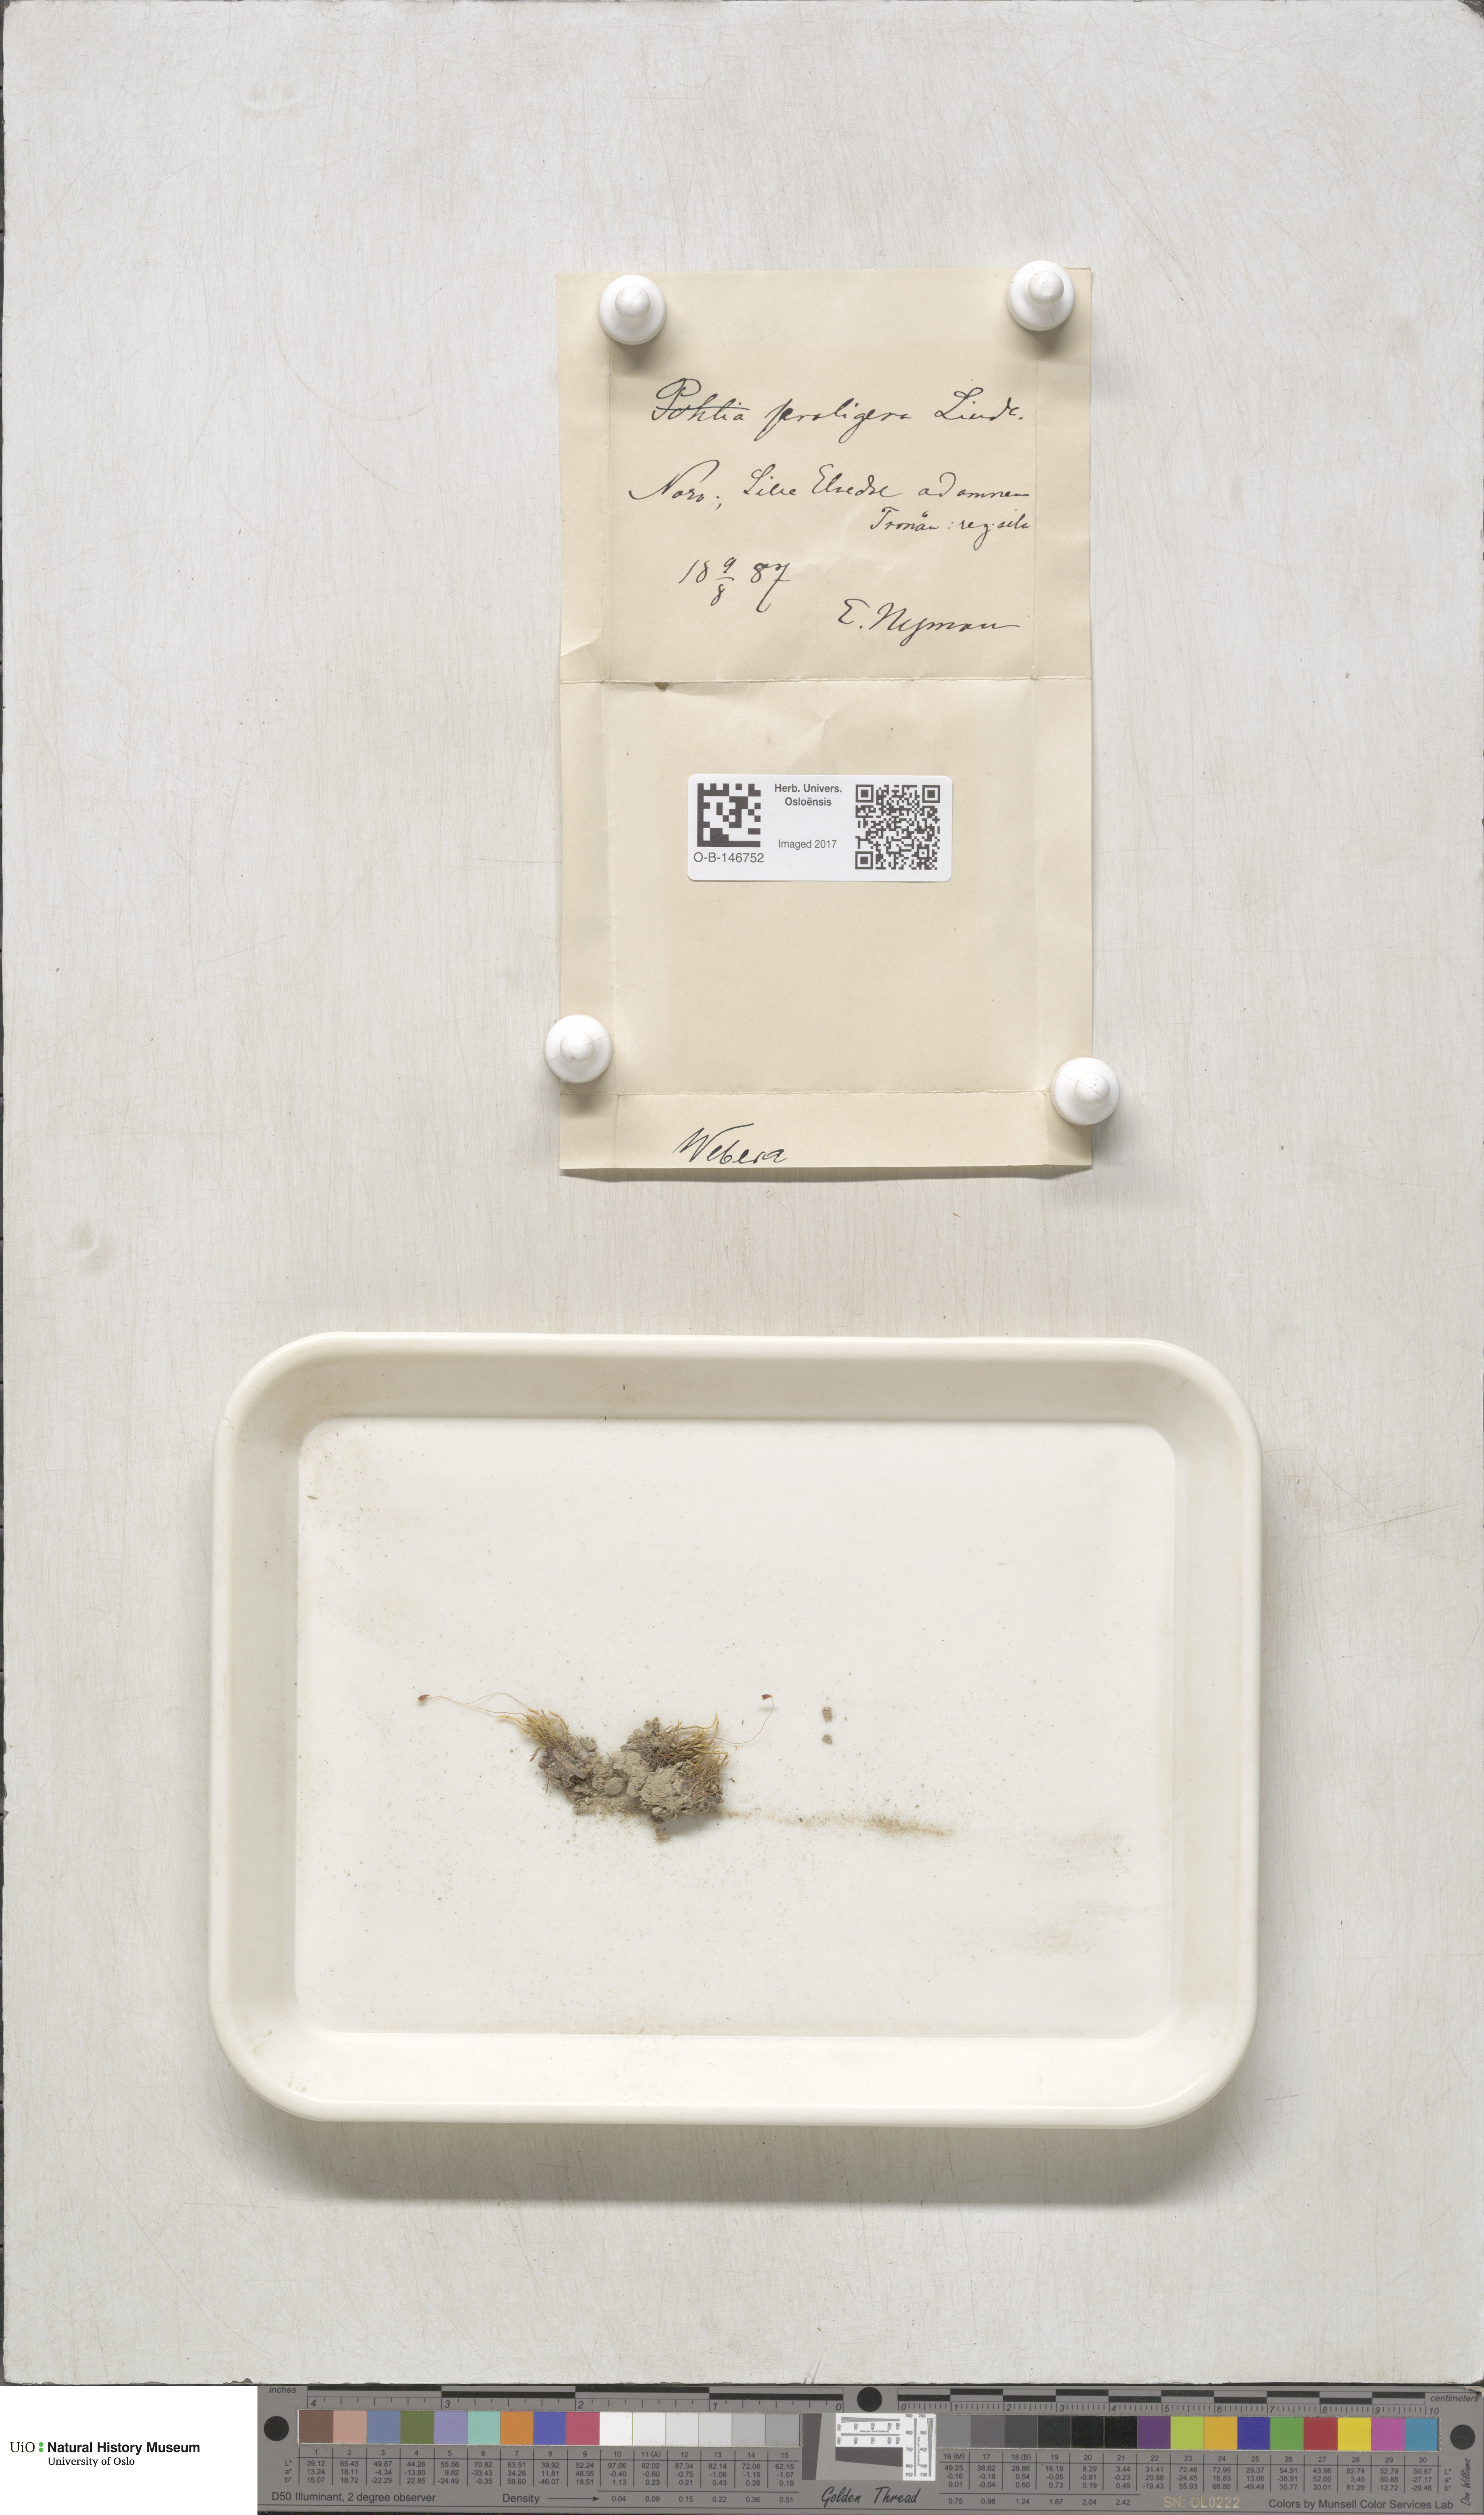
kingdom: Plantae
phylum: Bryophyta
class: Bryopsida
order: Bryales
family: Mniaceae
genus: Pohlia
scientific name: Pohlia proligera
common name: Cottony nodding moss
